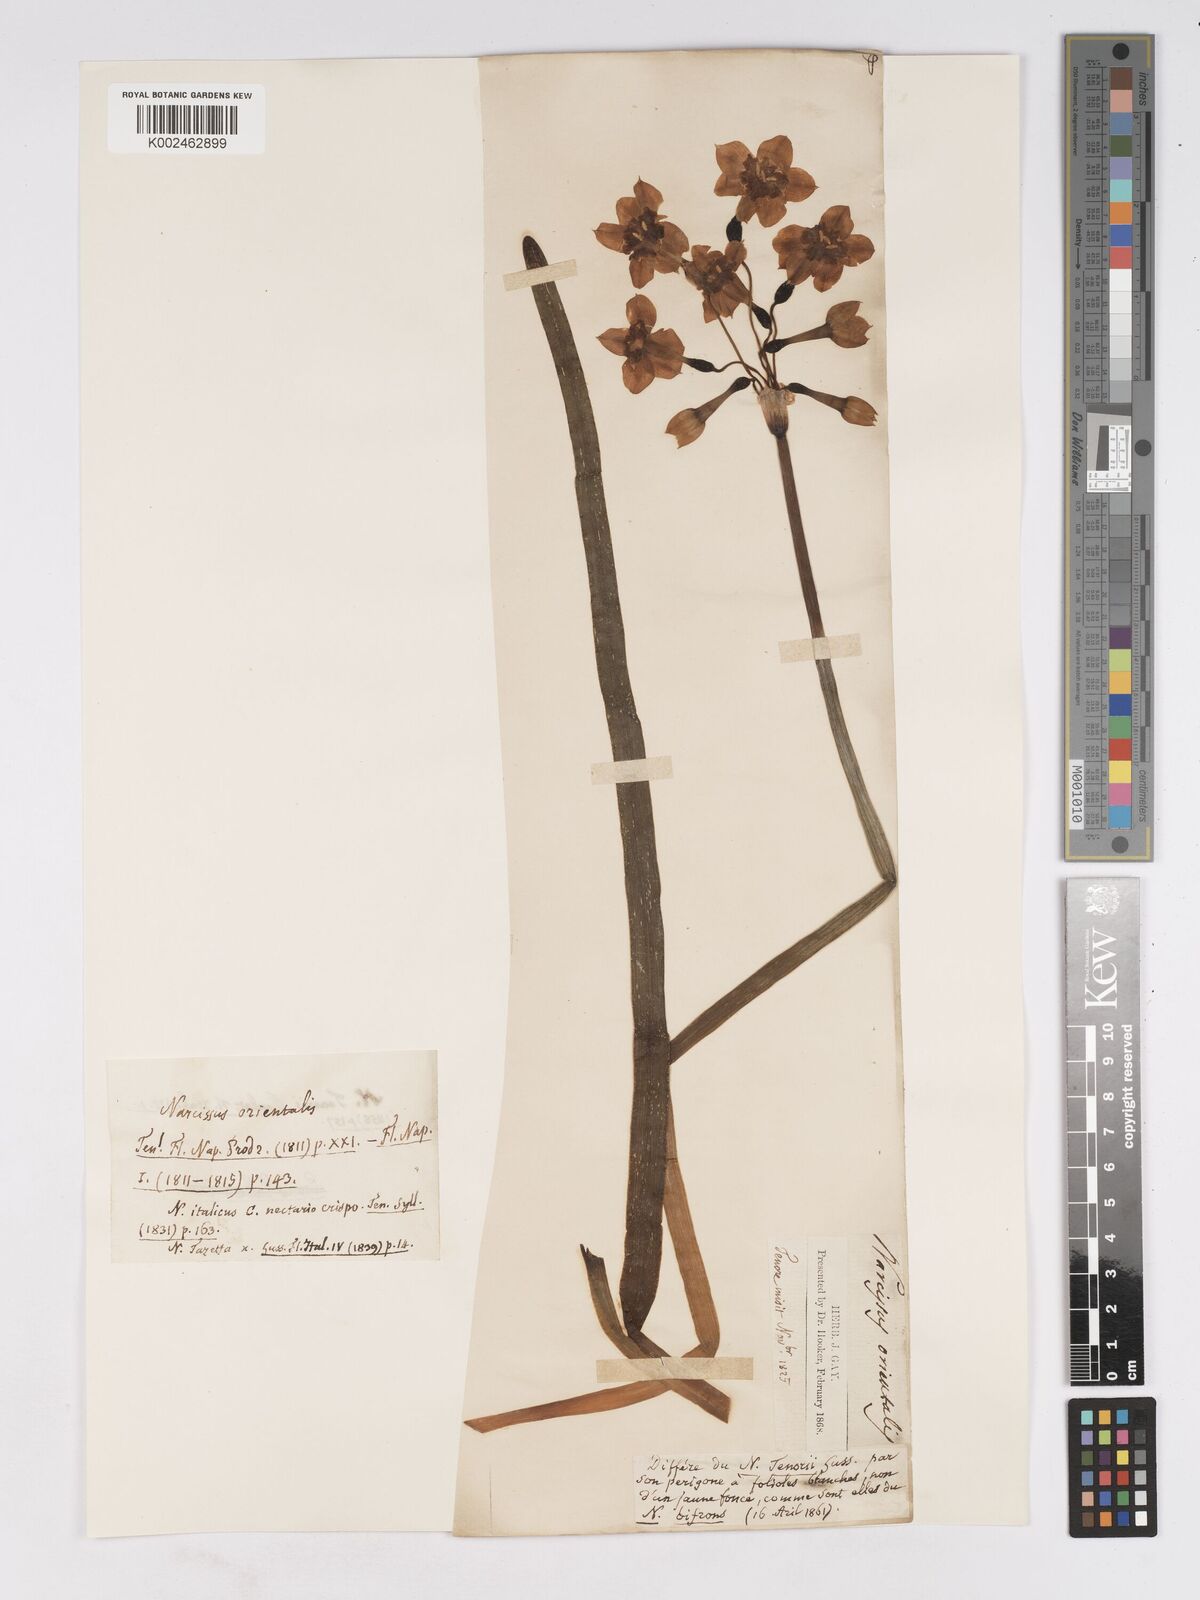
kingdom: Plantae
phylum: Tracheophyta
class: Liliopsida
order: Asparagales
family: Amaryllidaceae
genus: Narcissus
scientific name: Narcissus tazetta
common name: Bunch-flowered daffodil
